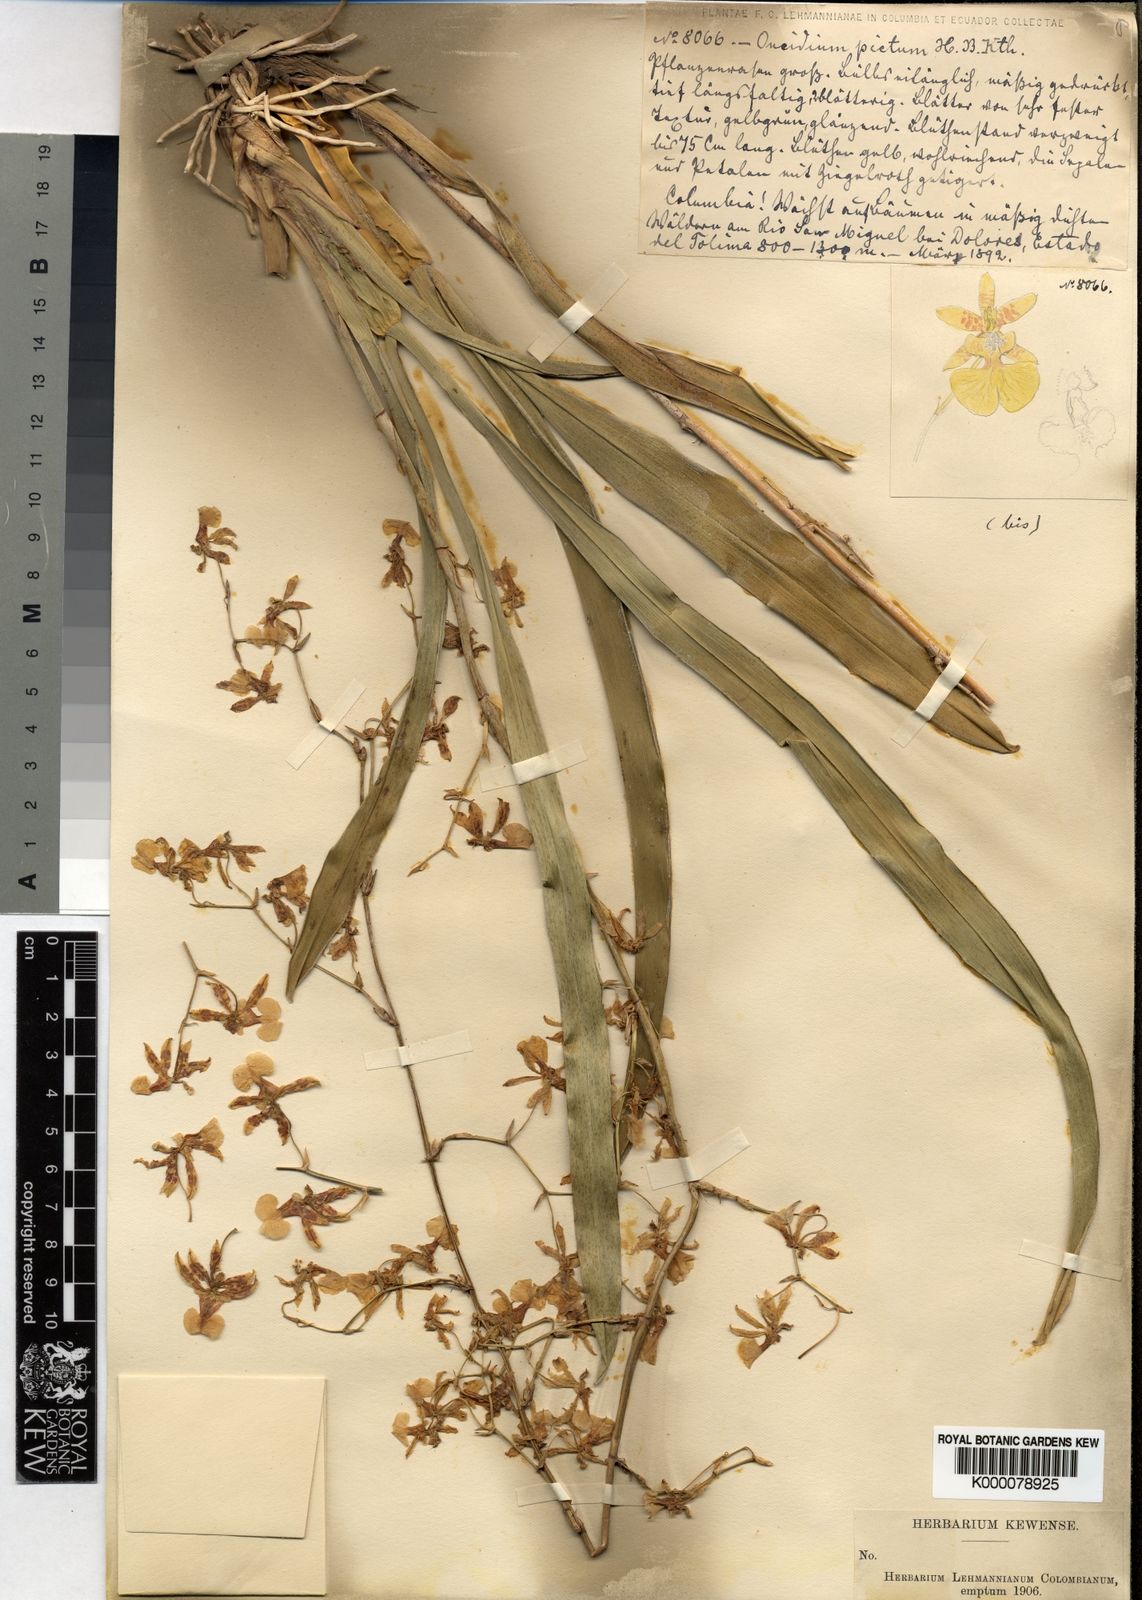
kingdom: Plantae
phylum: Tracheophyta
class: Liliopsida
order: Asparagales
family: Orchidaceae
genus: Oncidium
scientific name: Oncidium pictum
